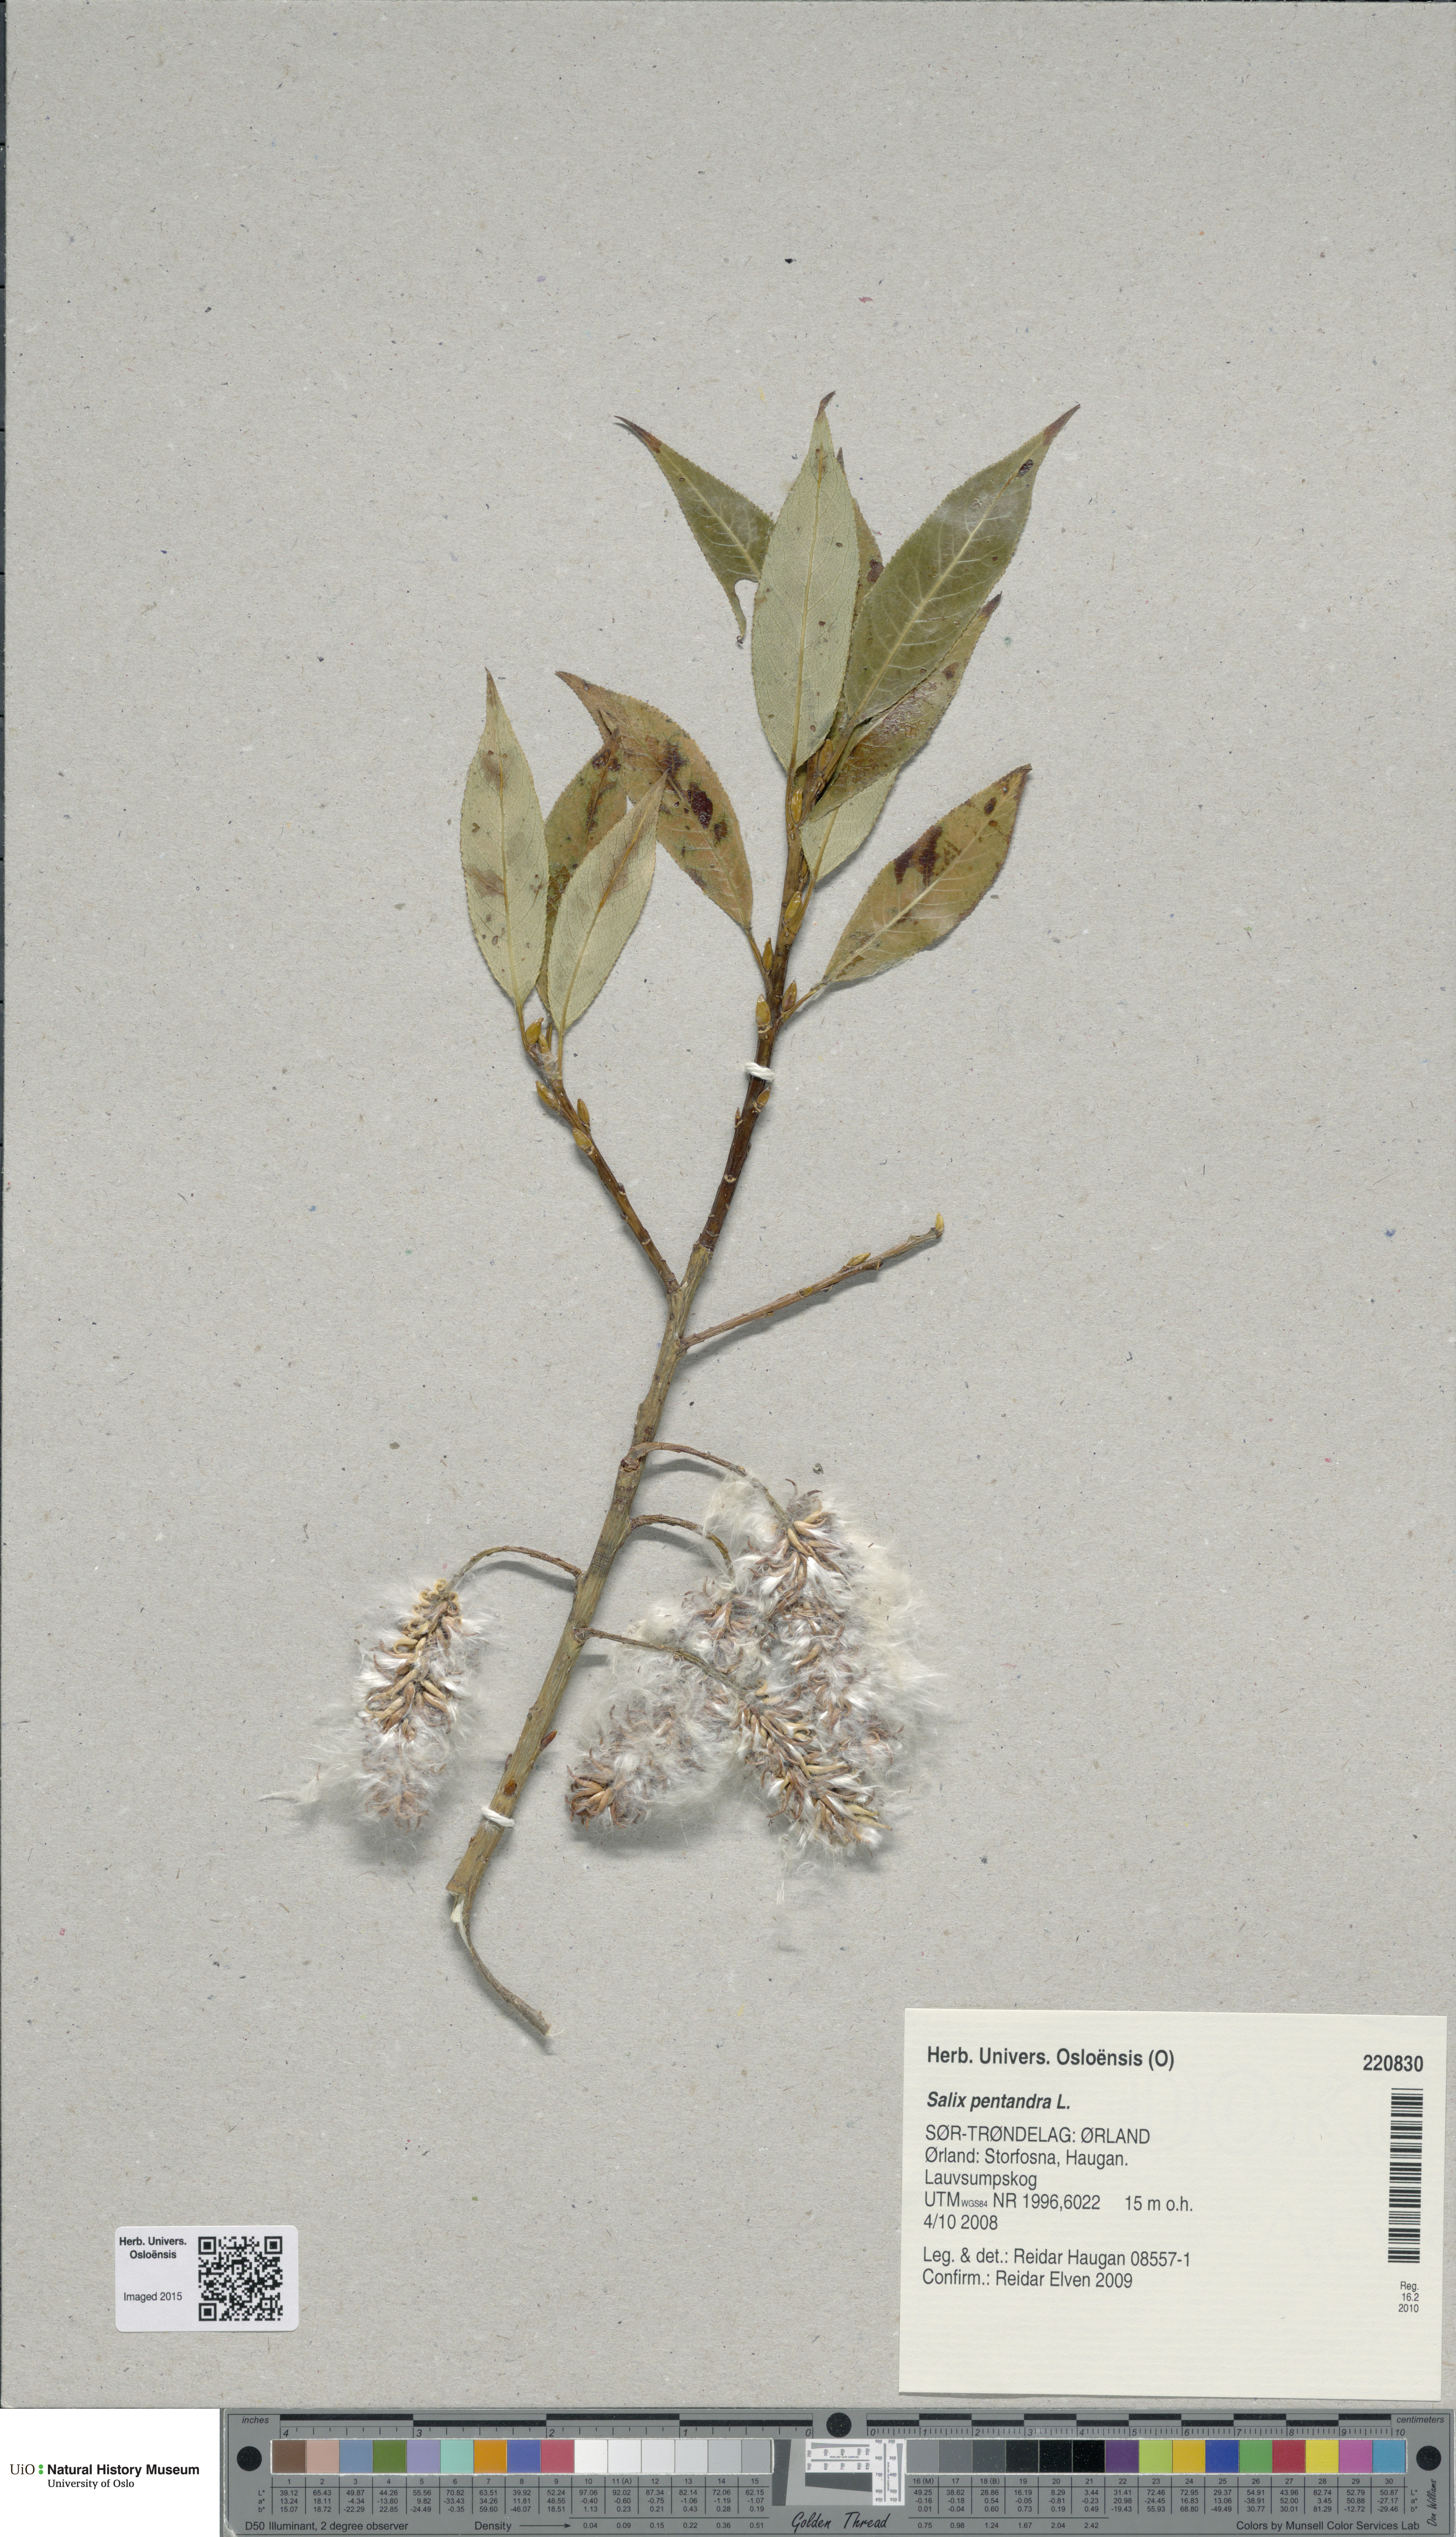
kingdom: Plantae
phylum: Tracheophyta
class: Magnoliopsida
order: Malpighiales
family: Salicaceae
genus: Salix
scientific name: Salix pentandra
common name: Bay willow
